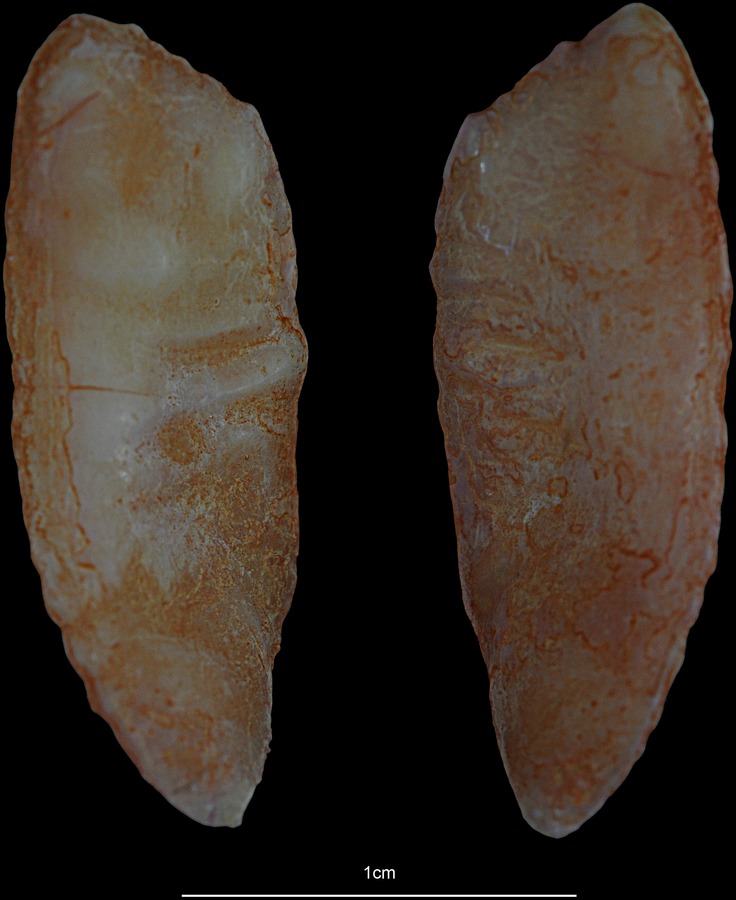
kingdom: Animalia
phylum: Chordata
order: Gadiformes
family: Gadidae
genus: Pollachius
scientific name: Pollachius pollachius
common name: Pollack
